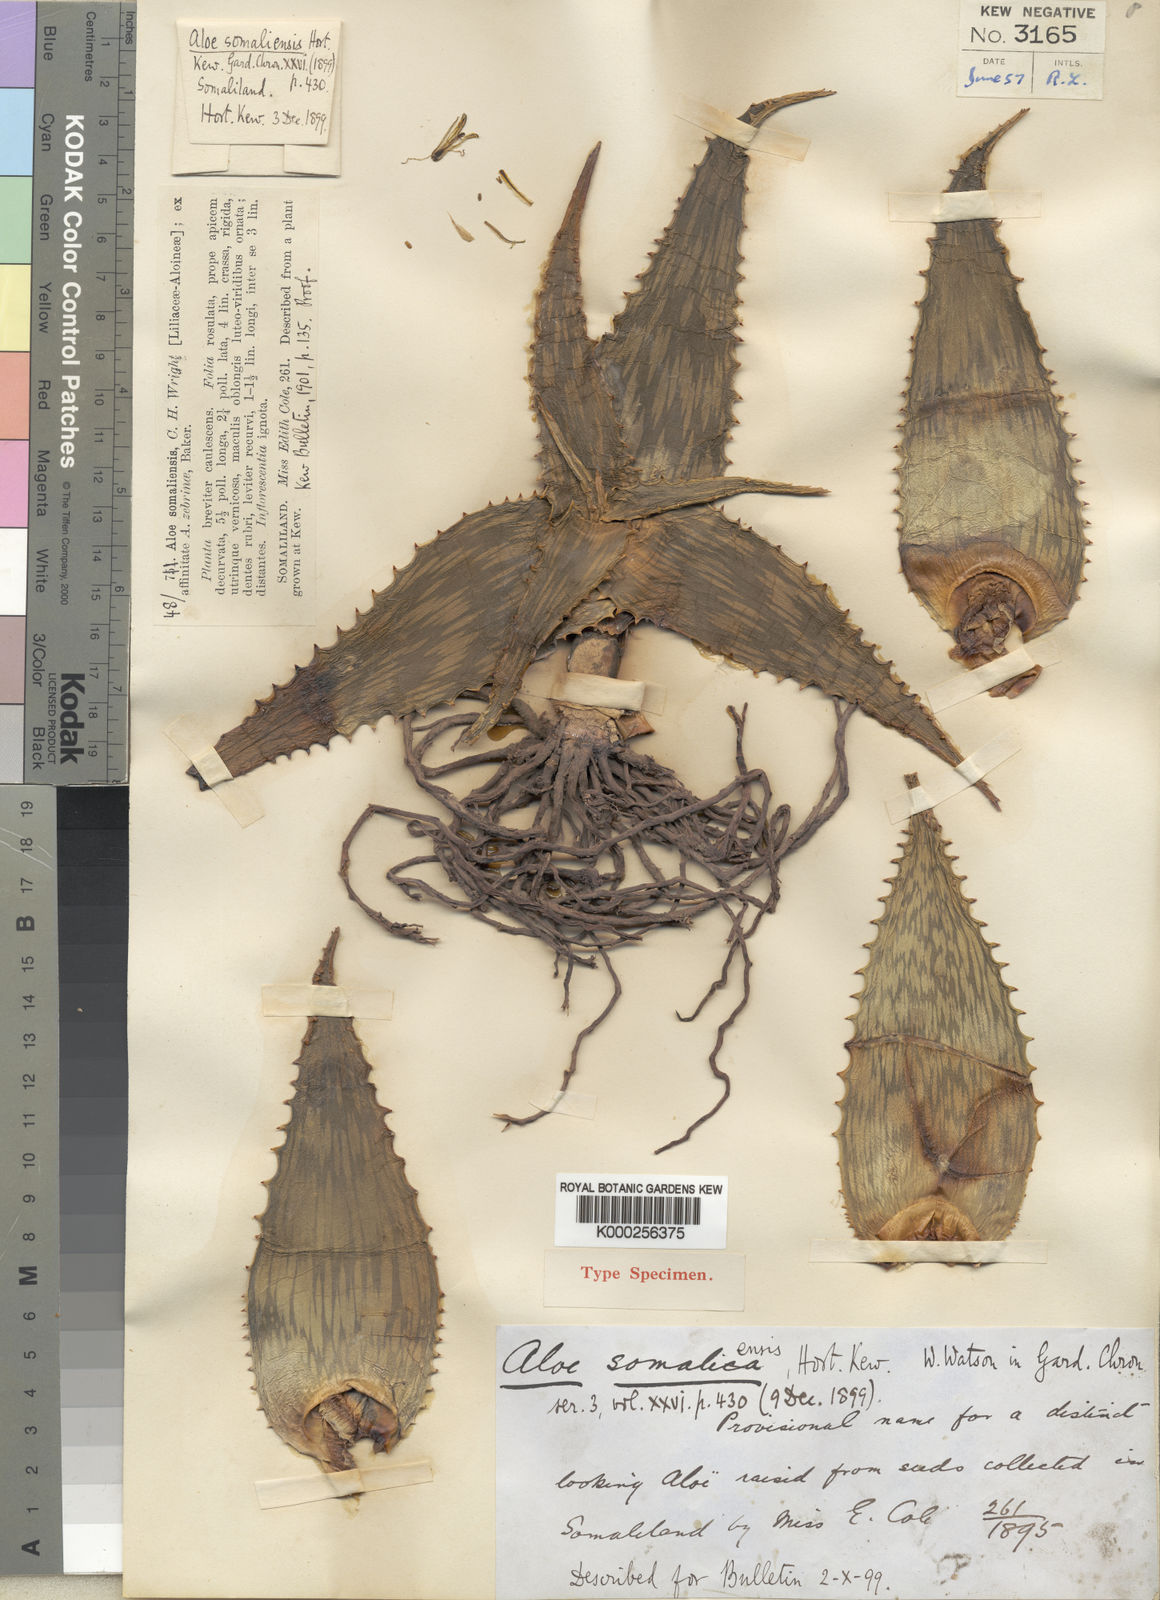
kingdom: Plantae
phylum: Tracheophyta
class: Liliopsida
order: Asparagales
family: Asphodelaceae
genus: Aloe
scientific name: Aloe somaliensis
